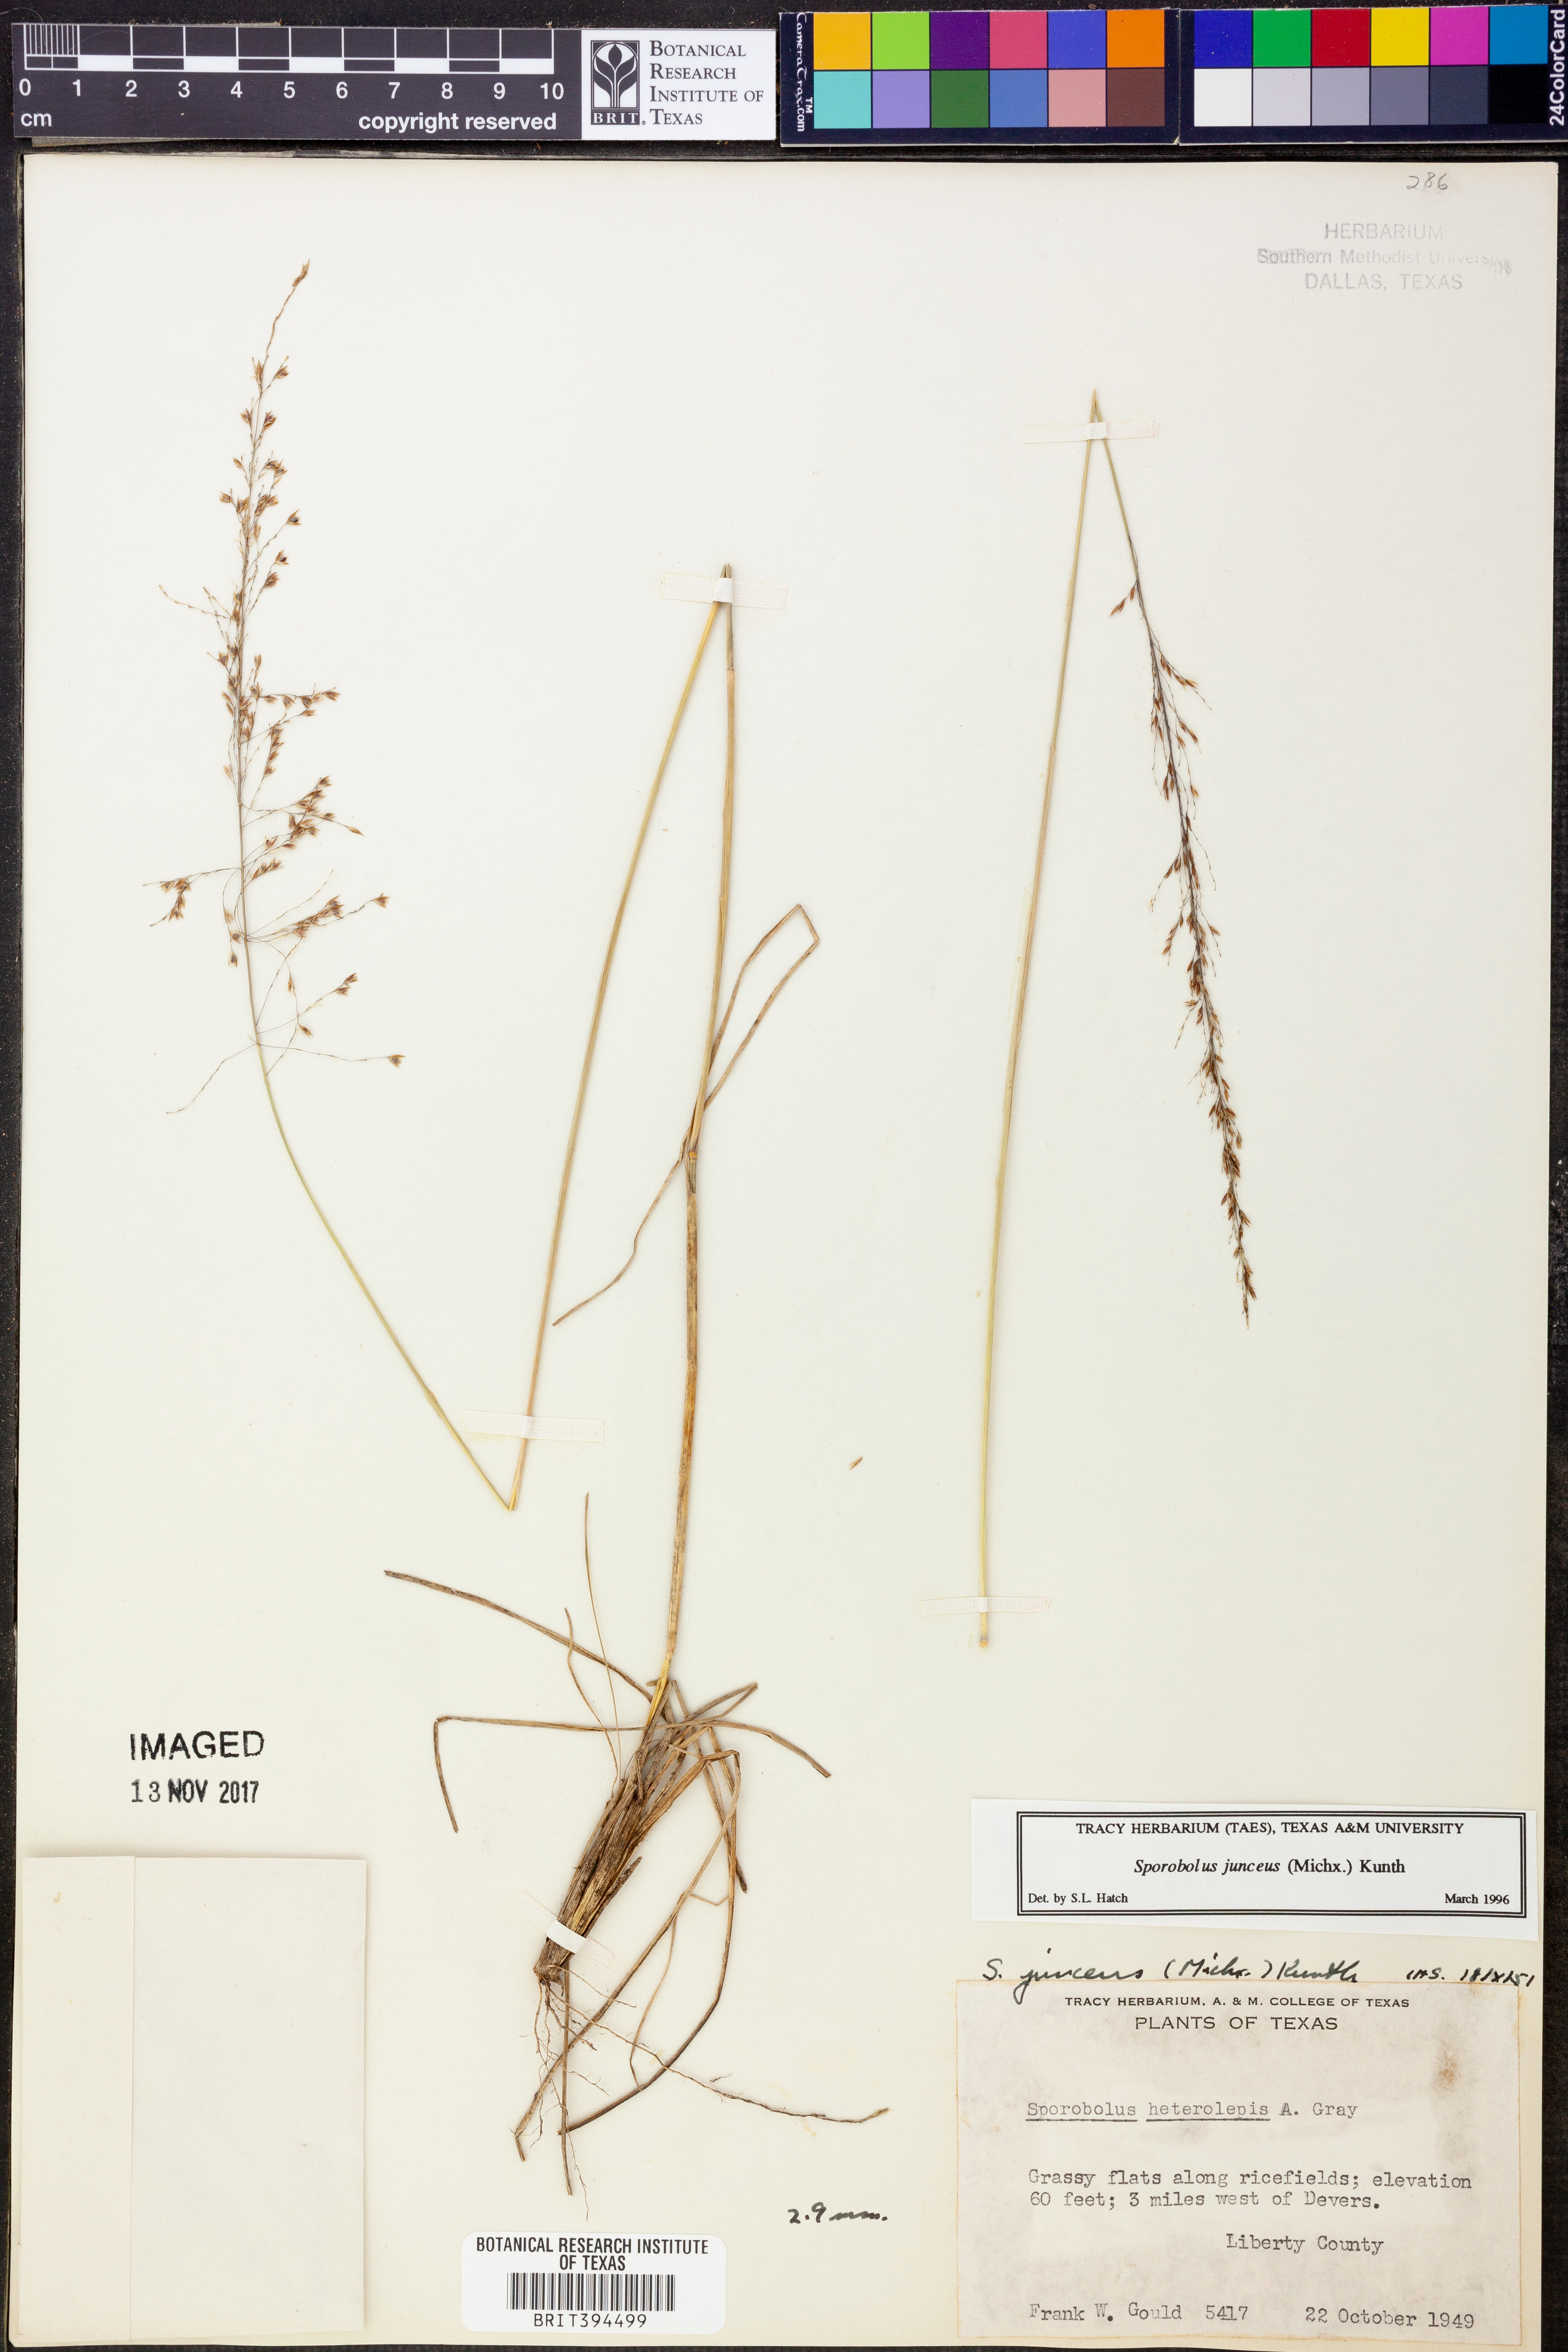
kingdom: Plantae
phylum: Tracheophyta
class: Liliopsida
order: Poales
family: Poaceae
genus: Sporobolus
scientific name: Sporobolus junceus
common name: Lizard grass
